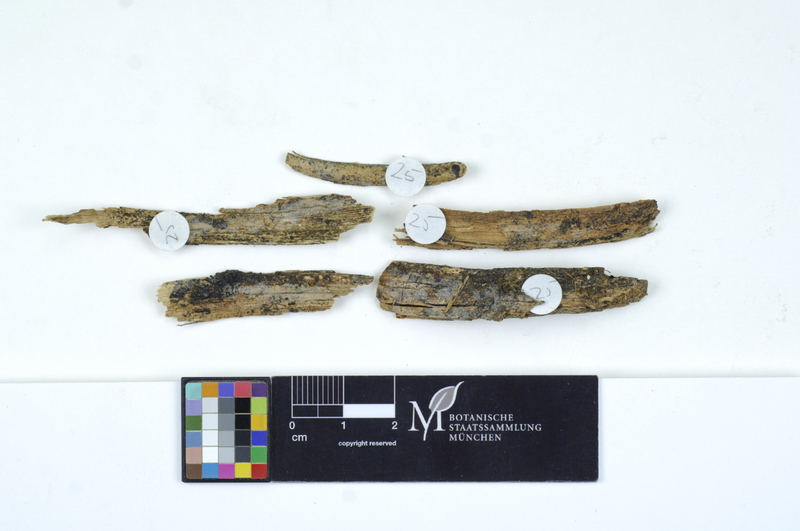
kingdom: Plantae
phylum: Tracheophyta
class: Pinopsida
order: Pinales
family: Pinaceae
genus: Picea
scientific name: Picea
